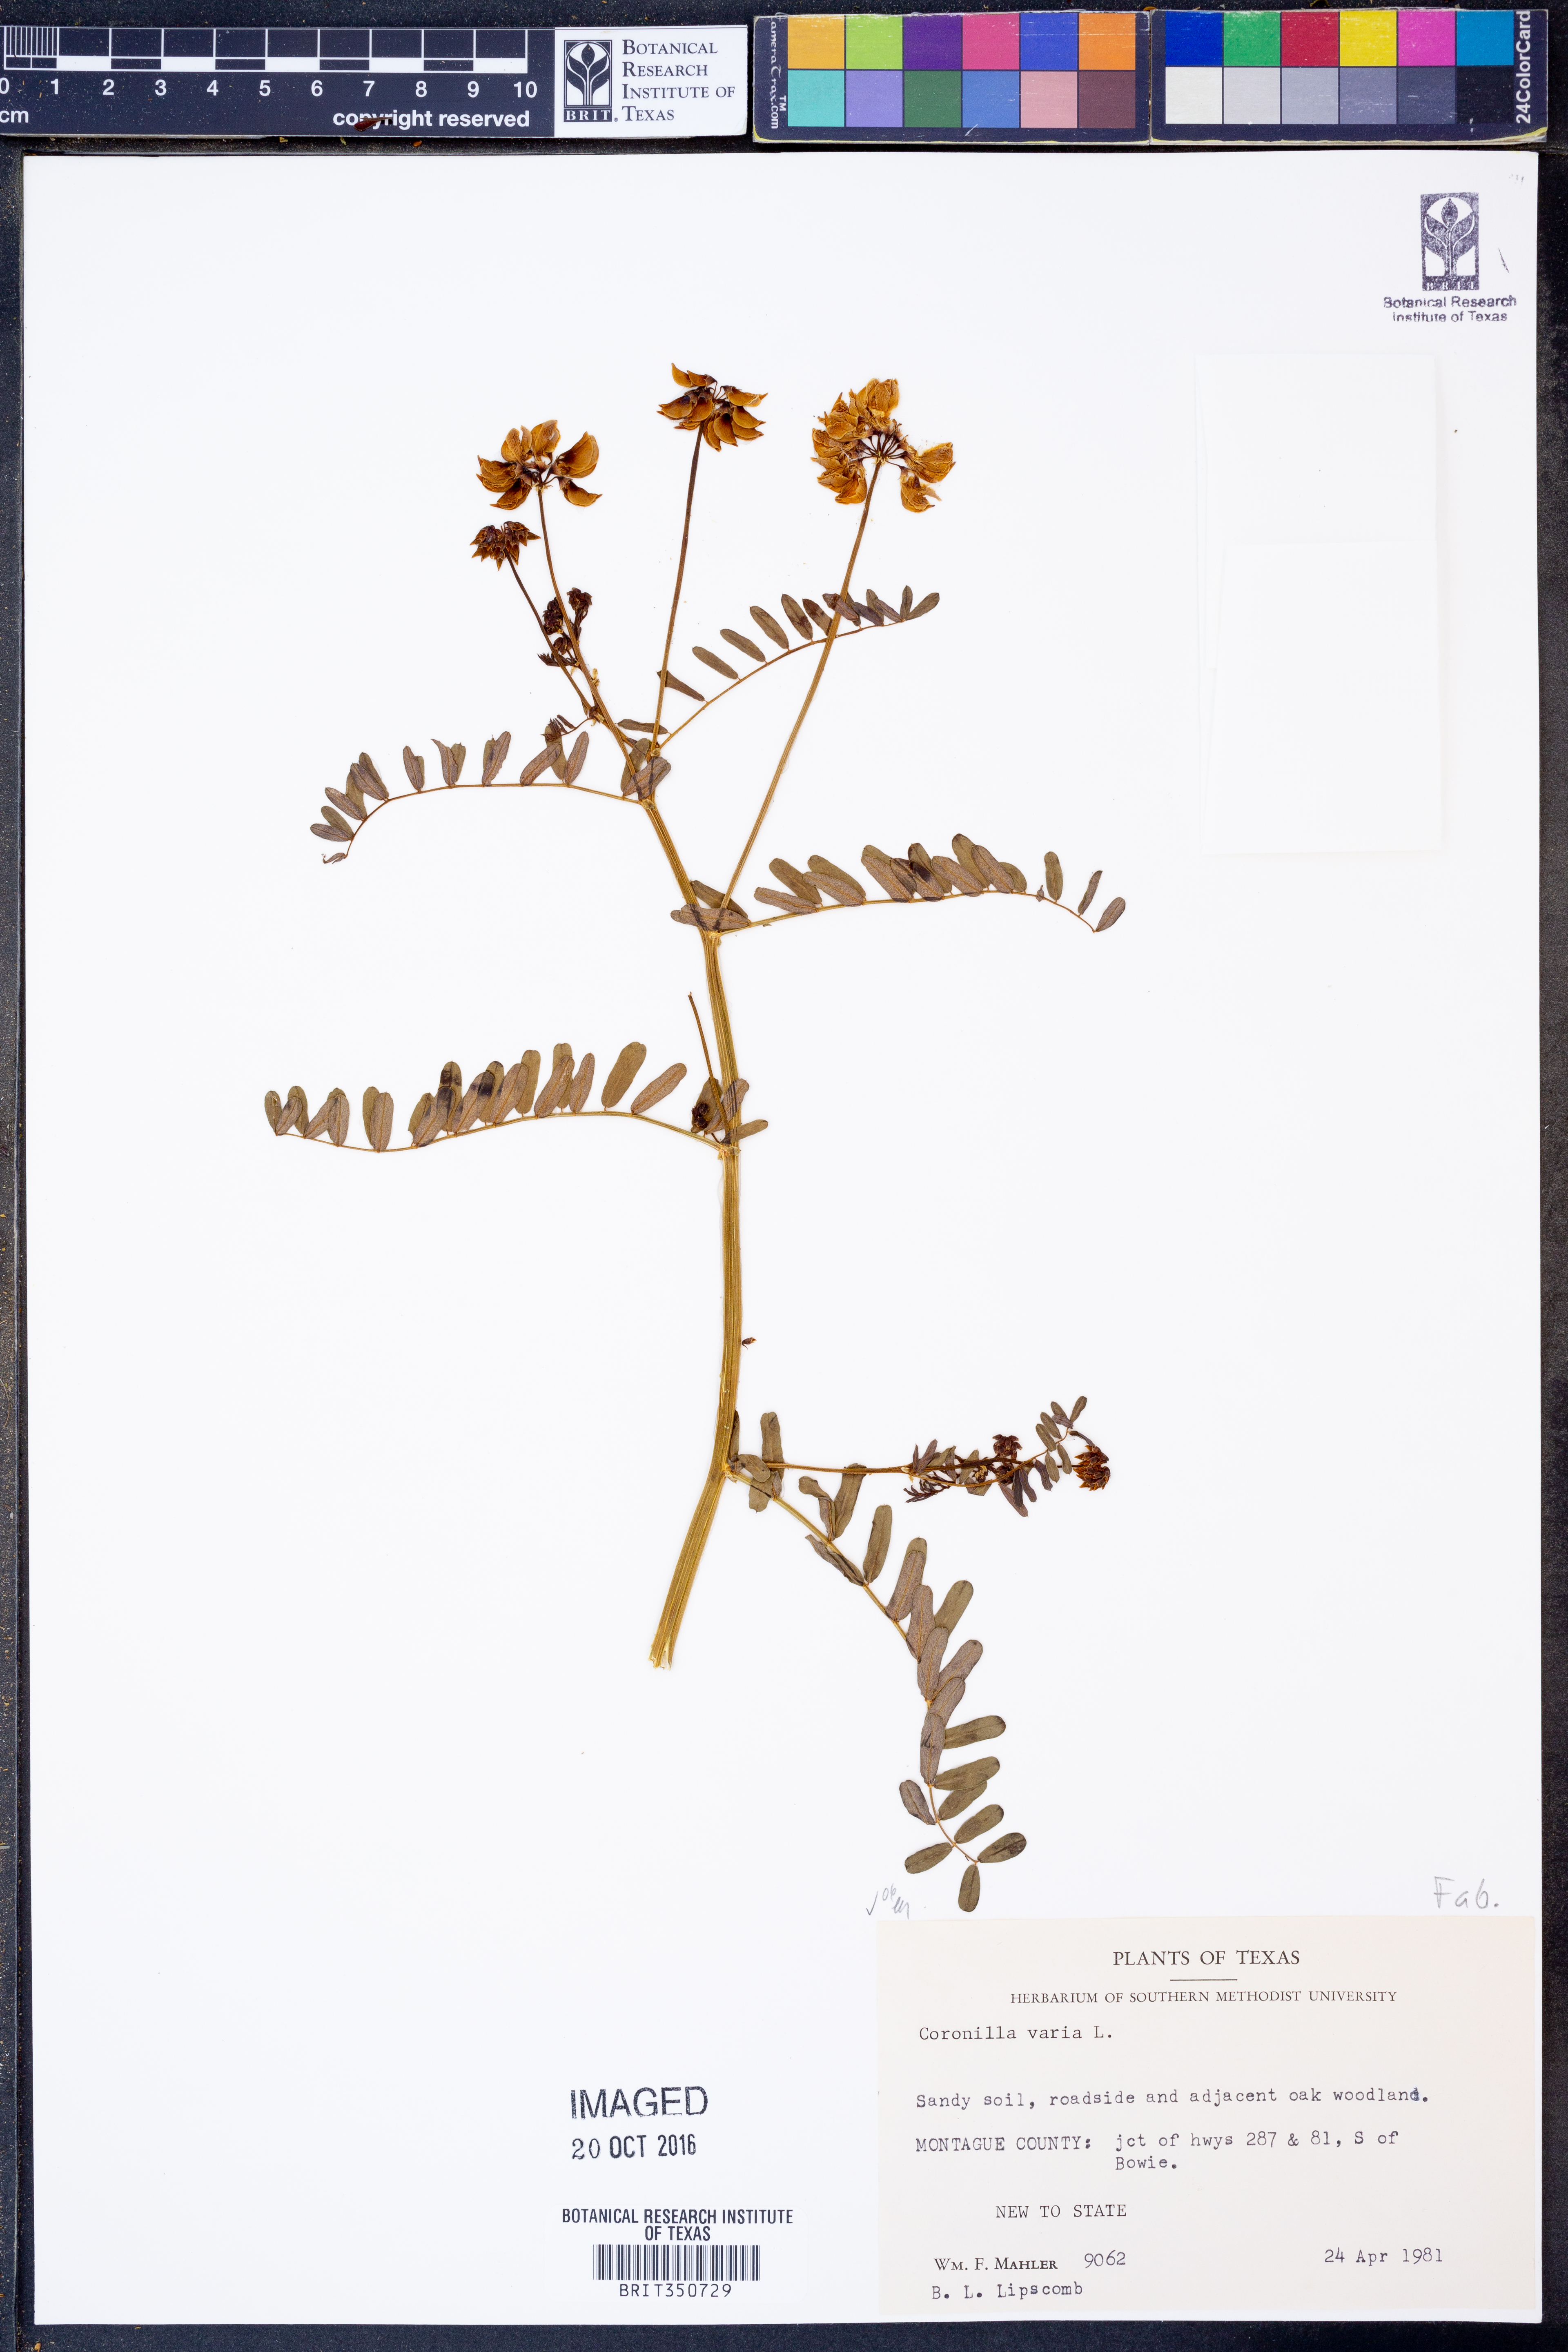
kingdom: Plantae
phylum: Tracheophyta
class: Magnoliopsida
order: Fabales
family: Fabaceae
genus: Coronilla
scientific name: Coronilla varia
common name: Crownvetch
